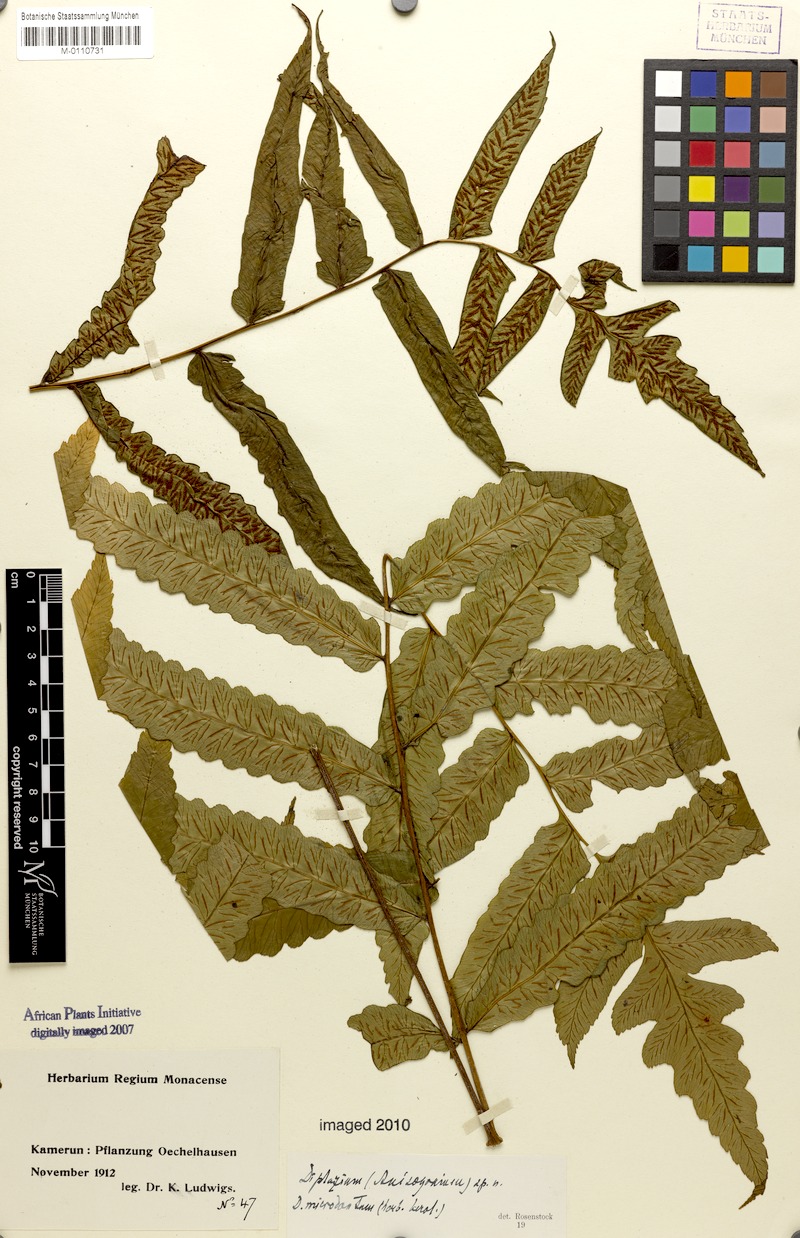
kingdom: Plantae
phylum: Tracheophyta
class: Polypodiopsida
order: Polypodiales
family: Athyriaceae
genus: Diplazium
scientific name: Diplazium
